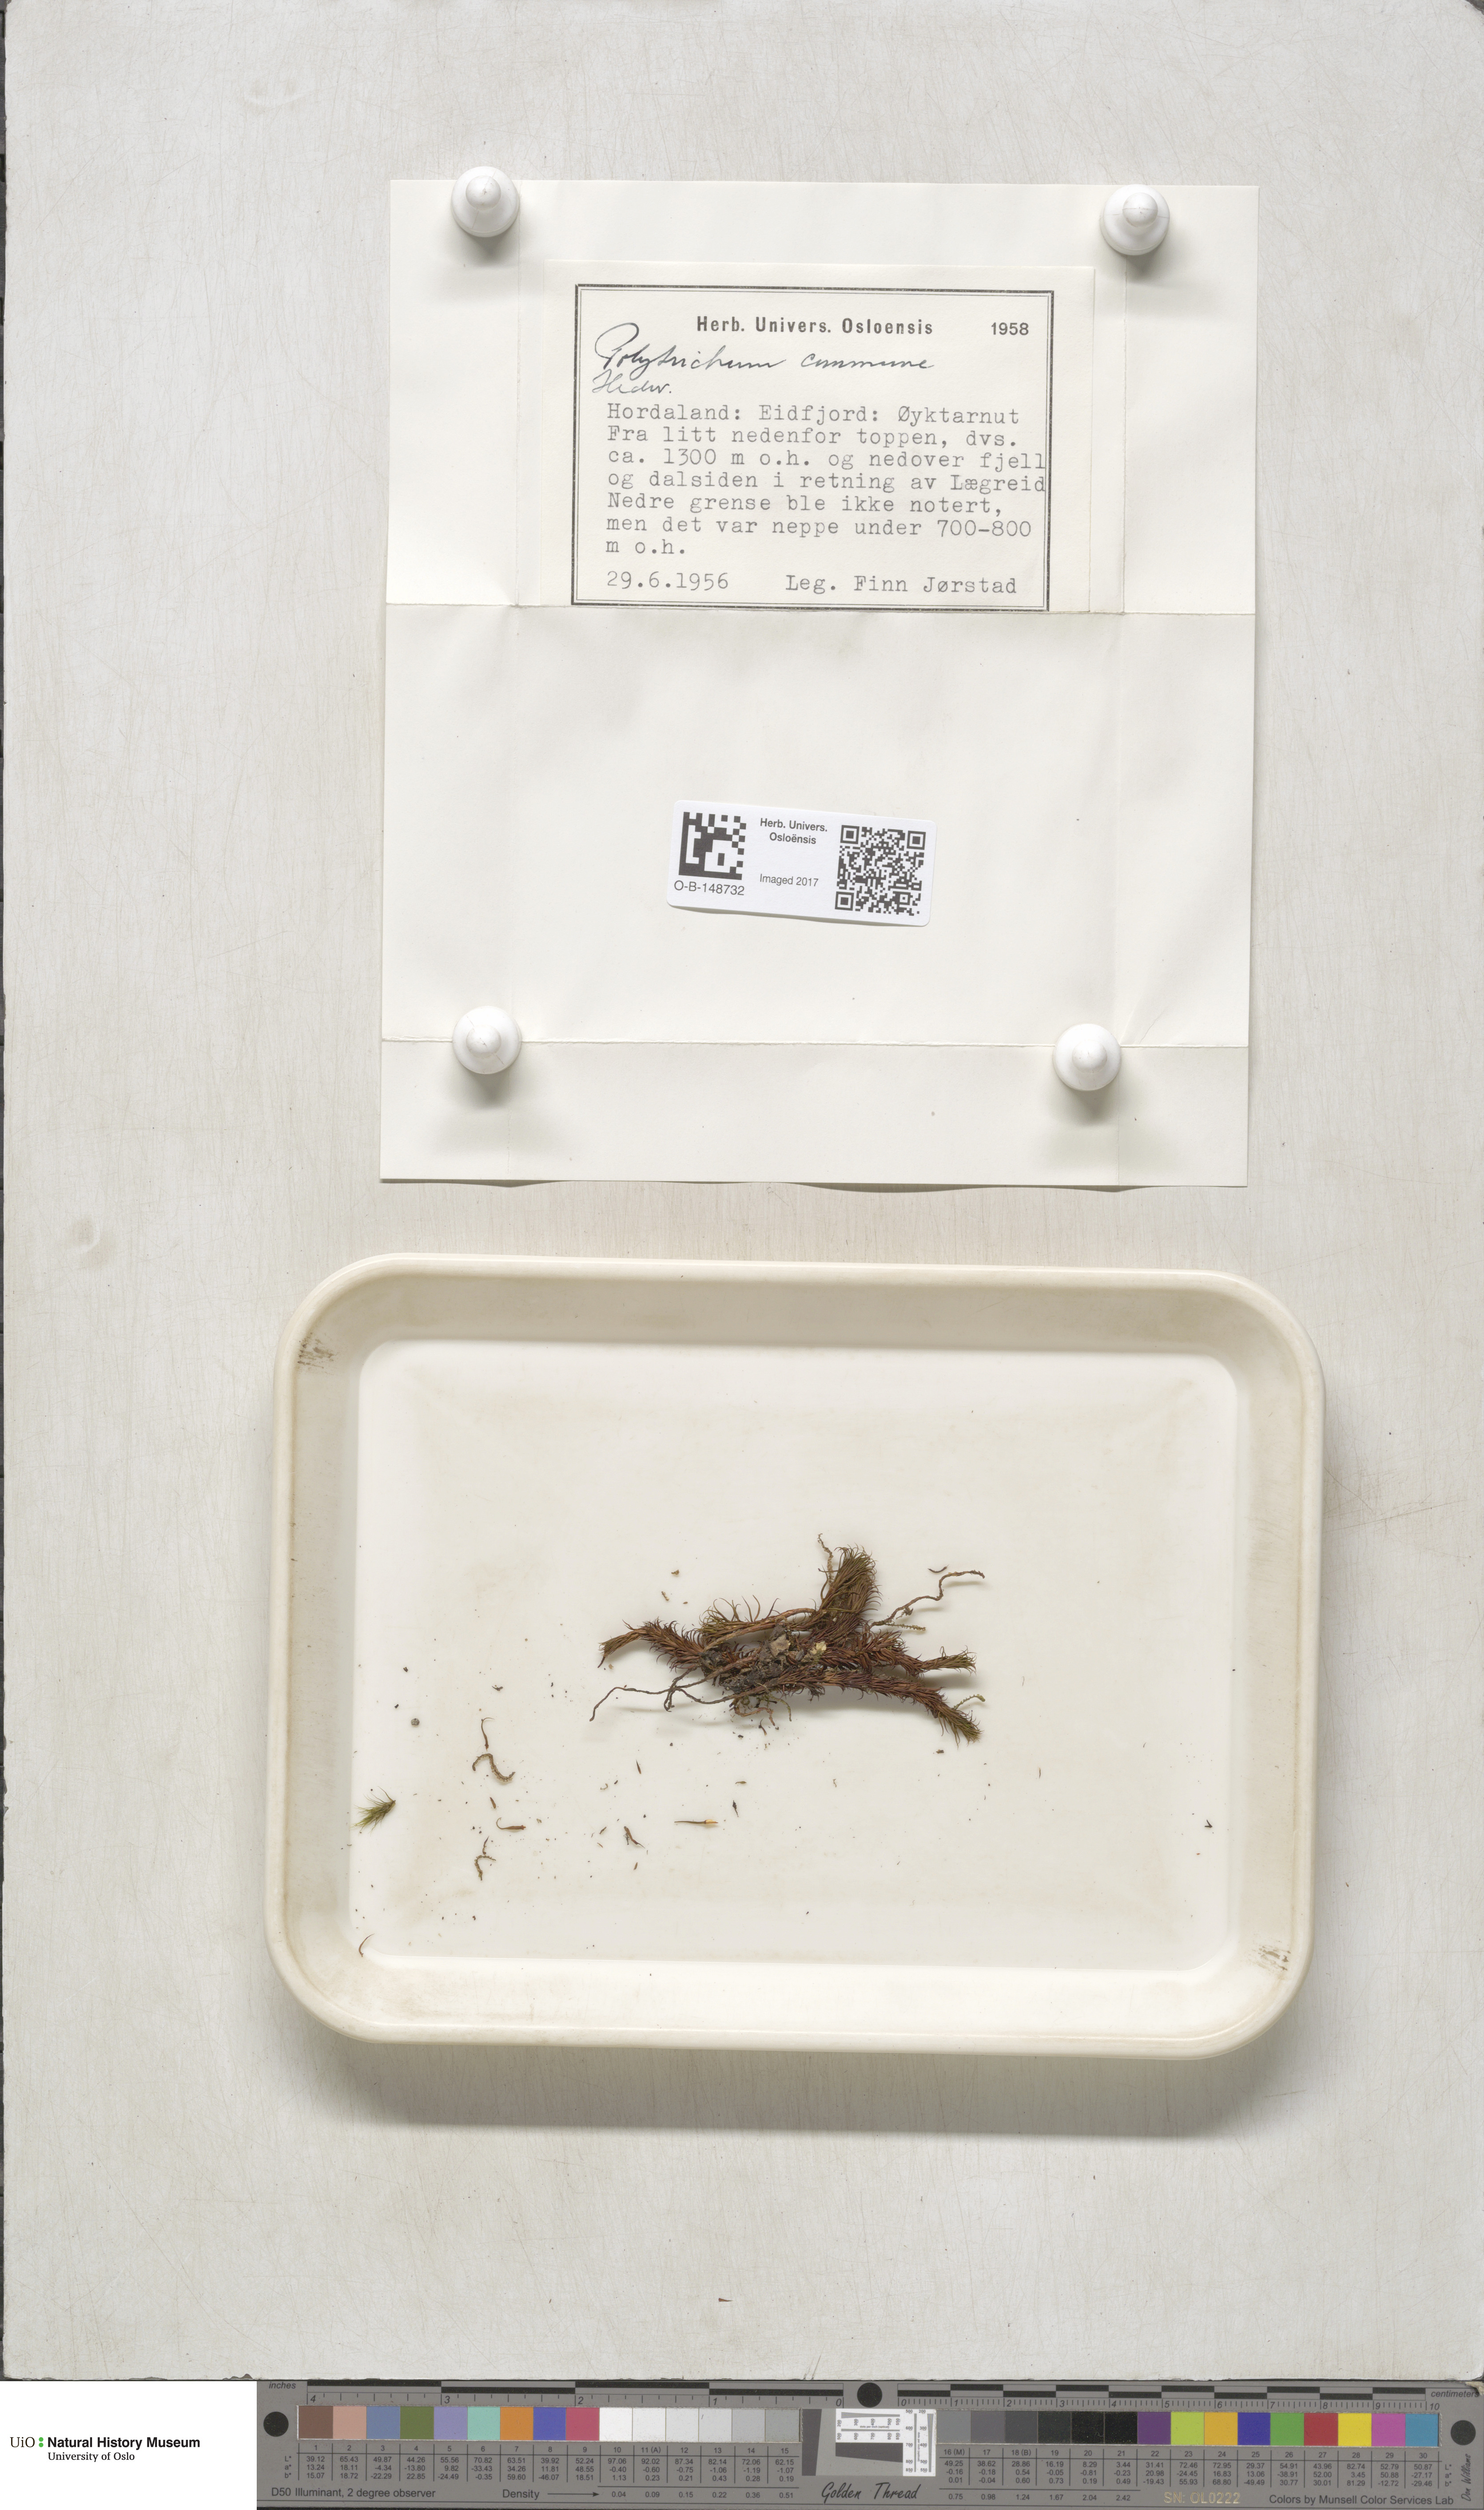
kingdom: Plantae
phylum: Bryophyta
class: Polytrichopsida
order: Polytrichales
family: Polytrichaceae
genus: Polytrichum
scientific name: Polytrichum commune
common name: Common haircap
